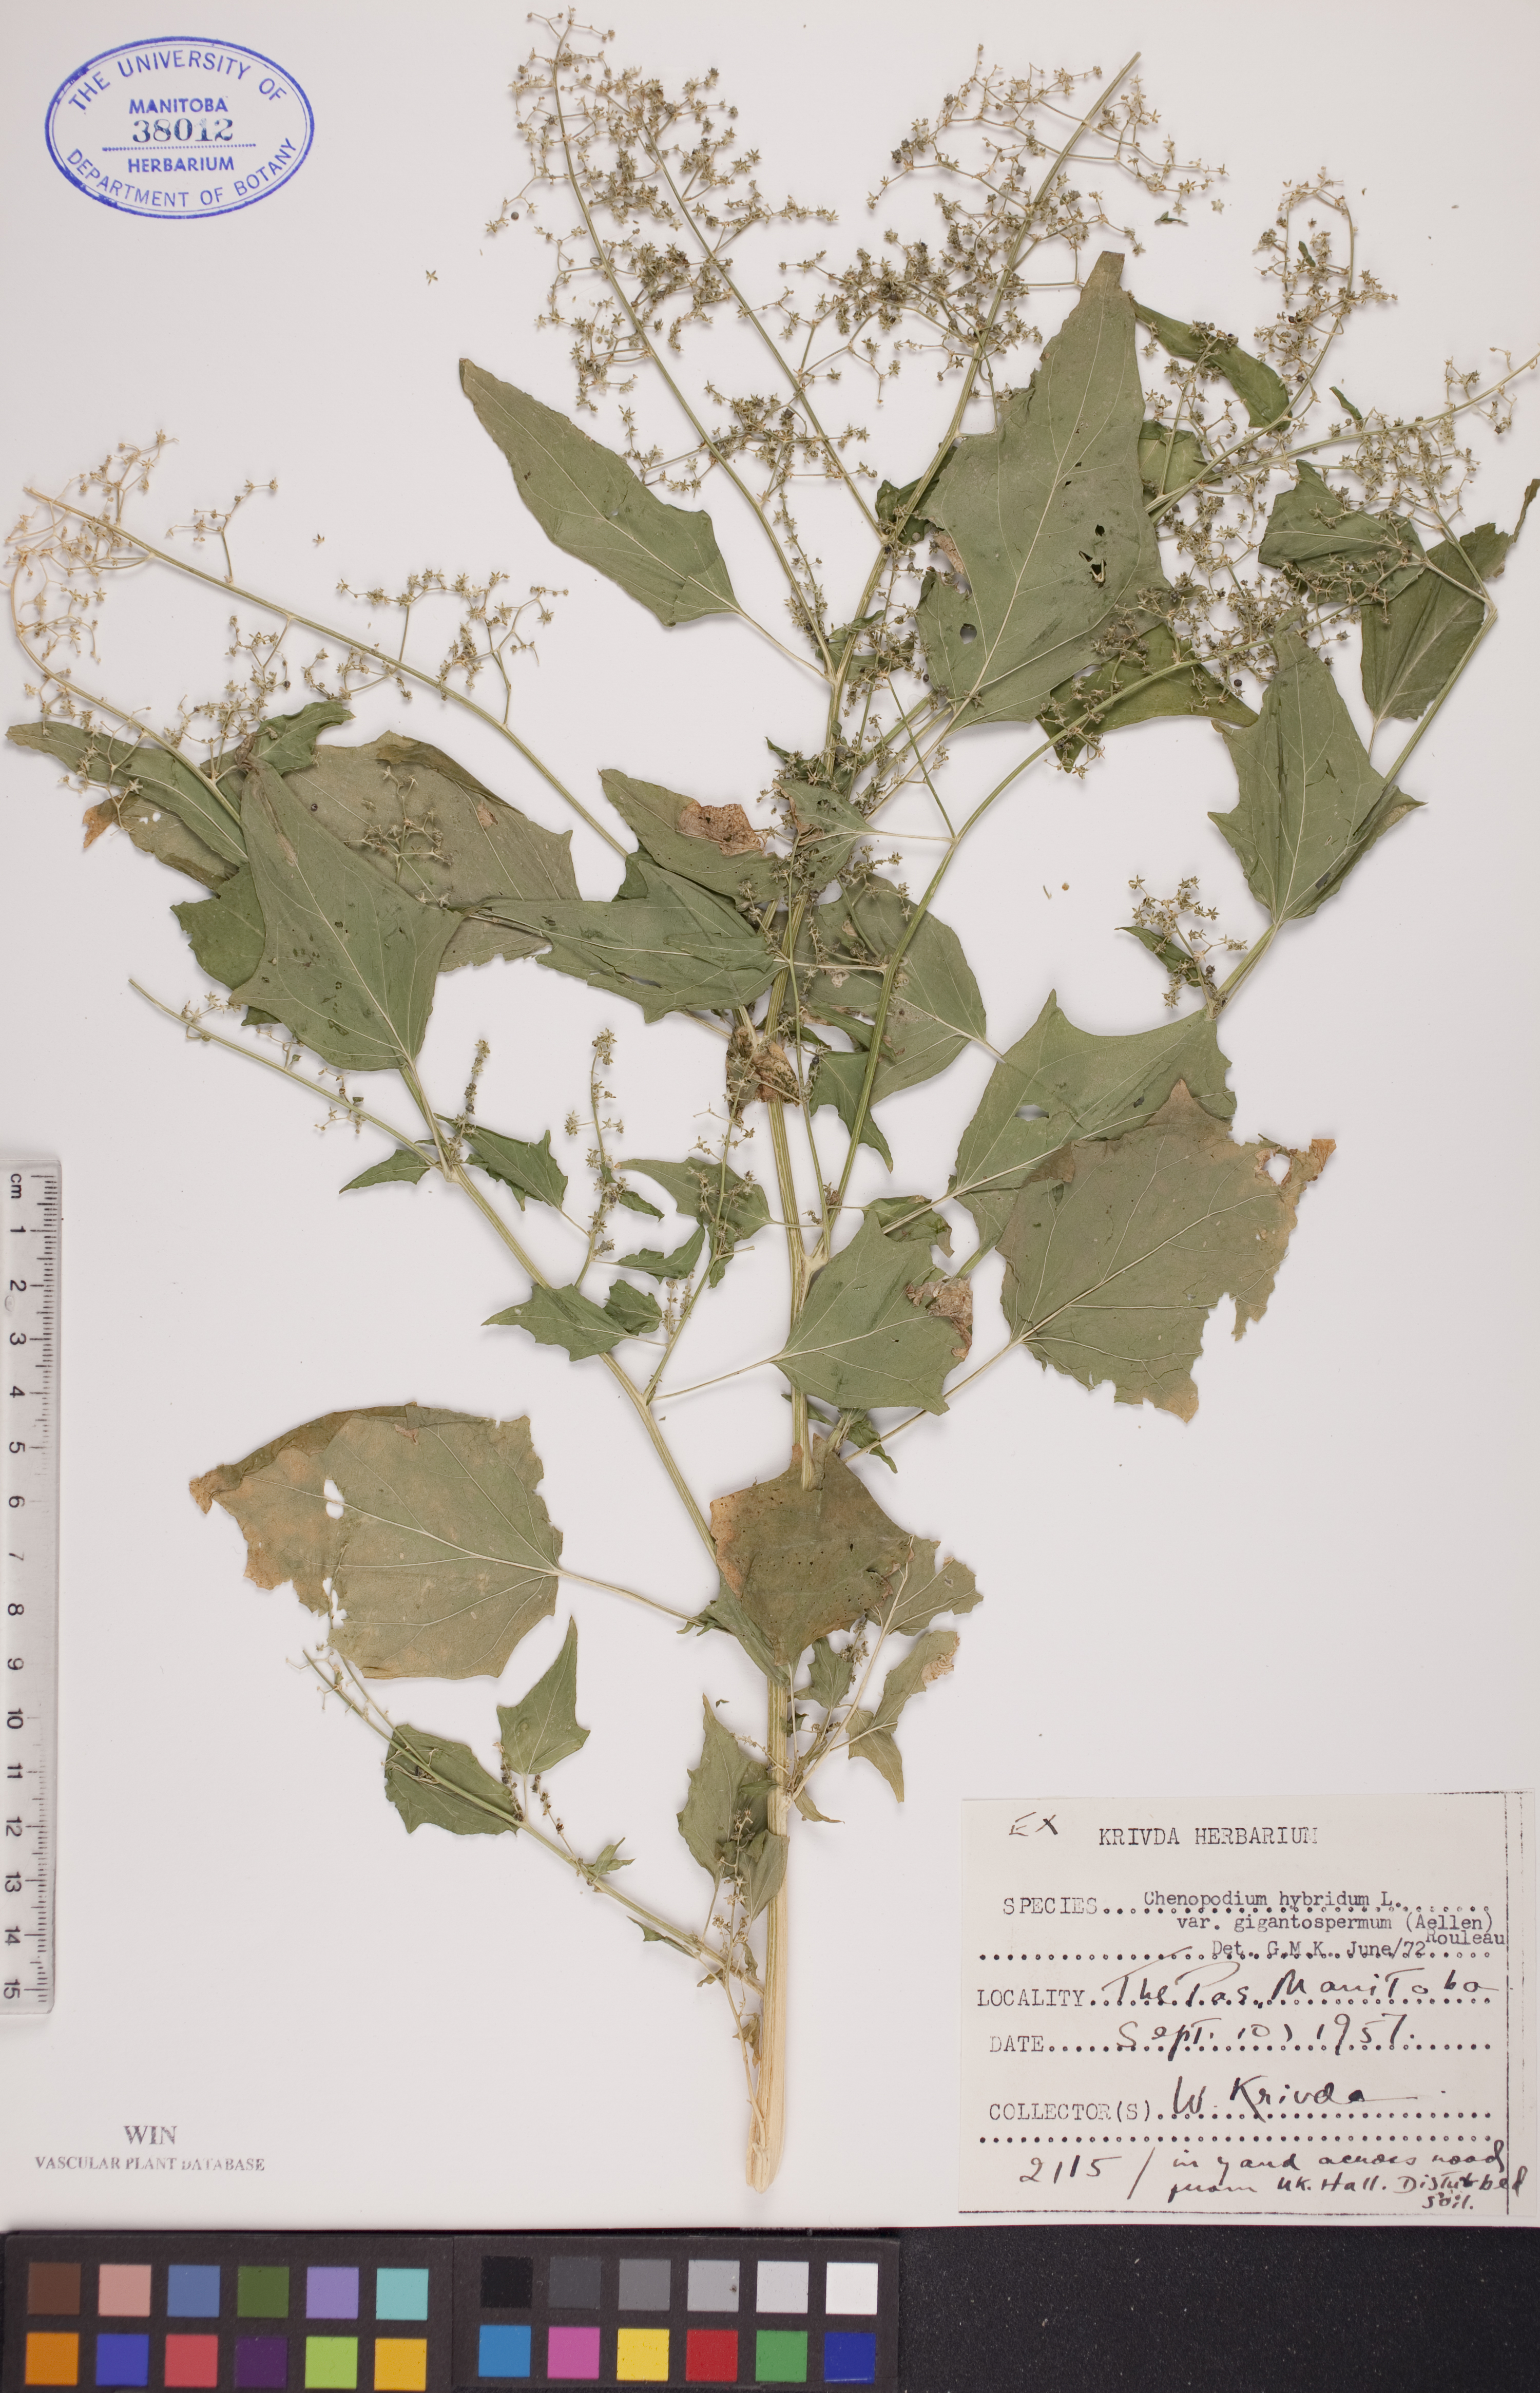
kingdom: Plantae
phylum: Tracheophyta
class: Magnoliopsida
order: Caryophyllales
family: Amaranthaceae
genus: Chenopodiastrum
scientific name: Chenopodiastrum simplex
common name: Large-seed goosefoot
